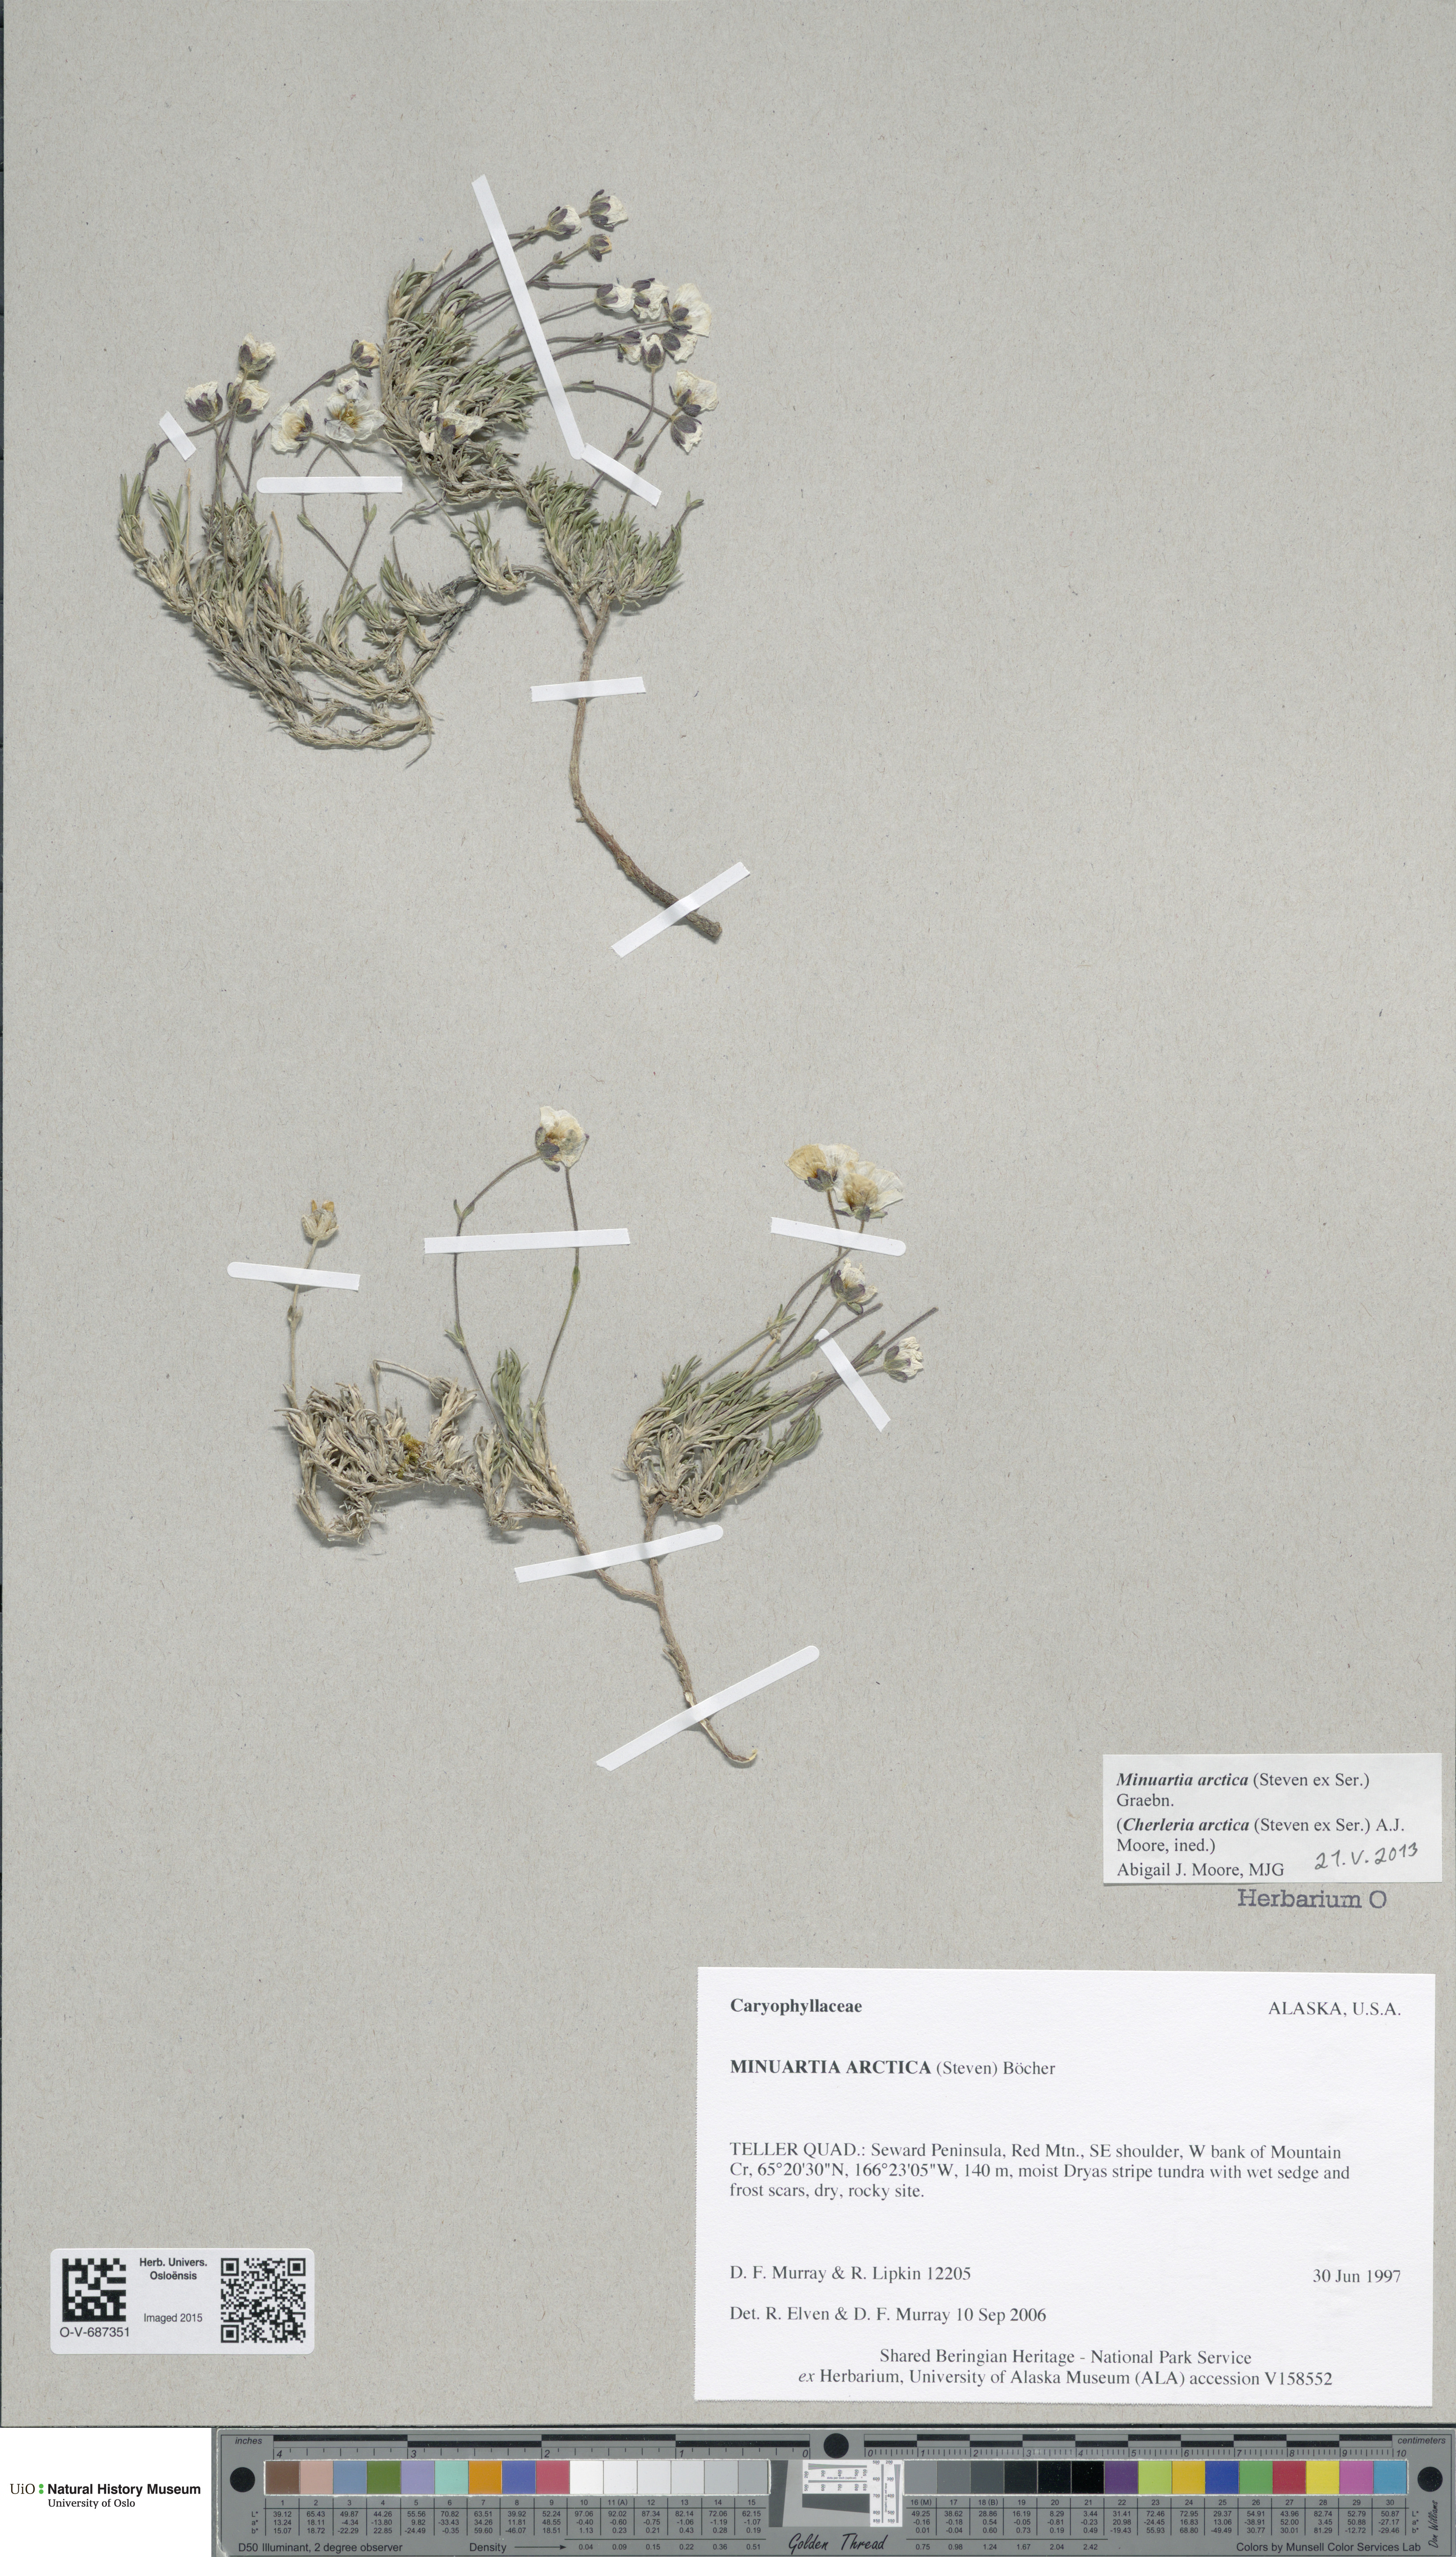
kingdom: Plantae
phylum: Tracheophyta
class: Magnoliopsida
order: Caryophyllales
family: Caryophyllaceae
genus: Cherleria
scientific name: Cherleria arctica
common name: Arctic sandwort
